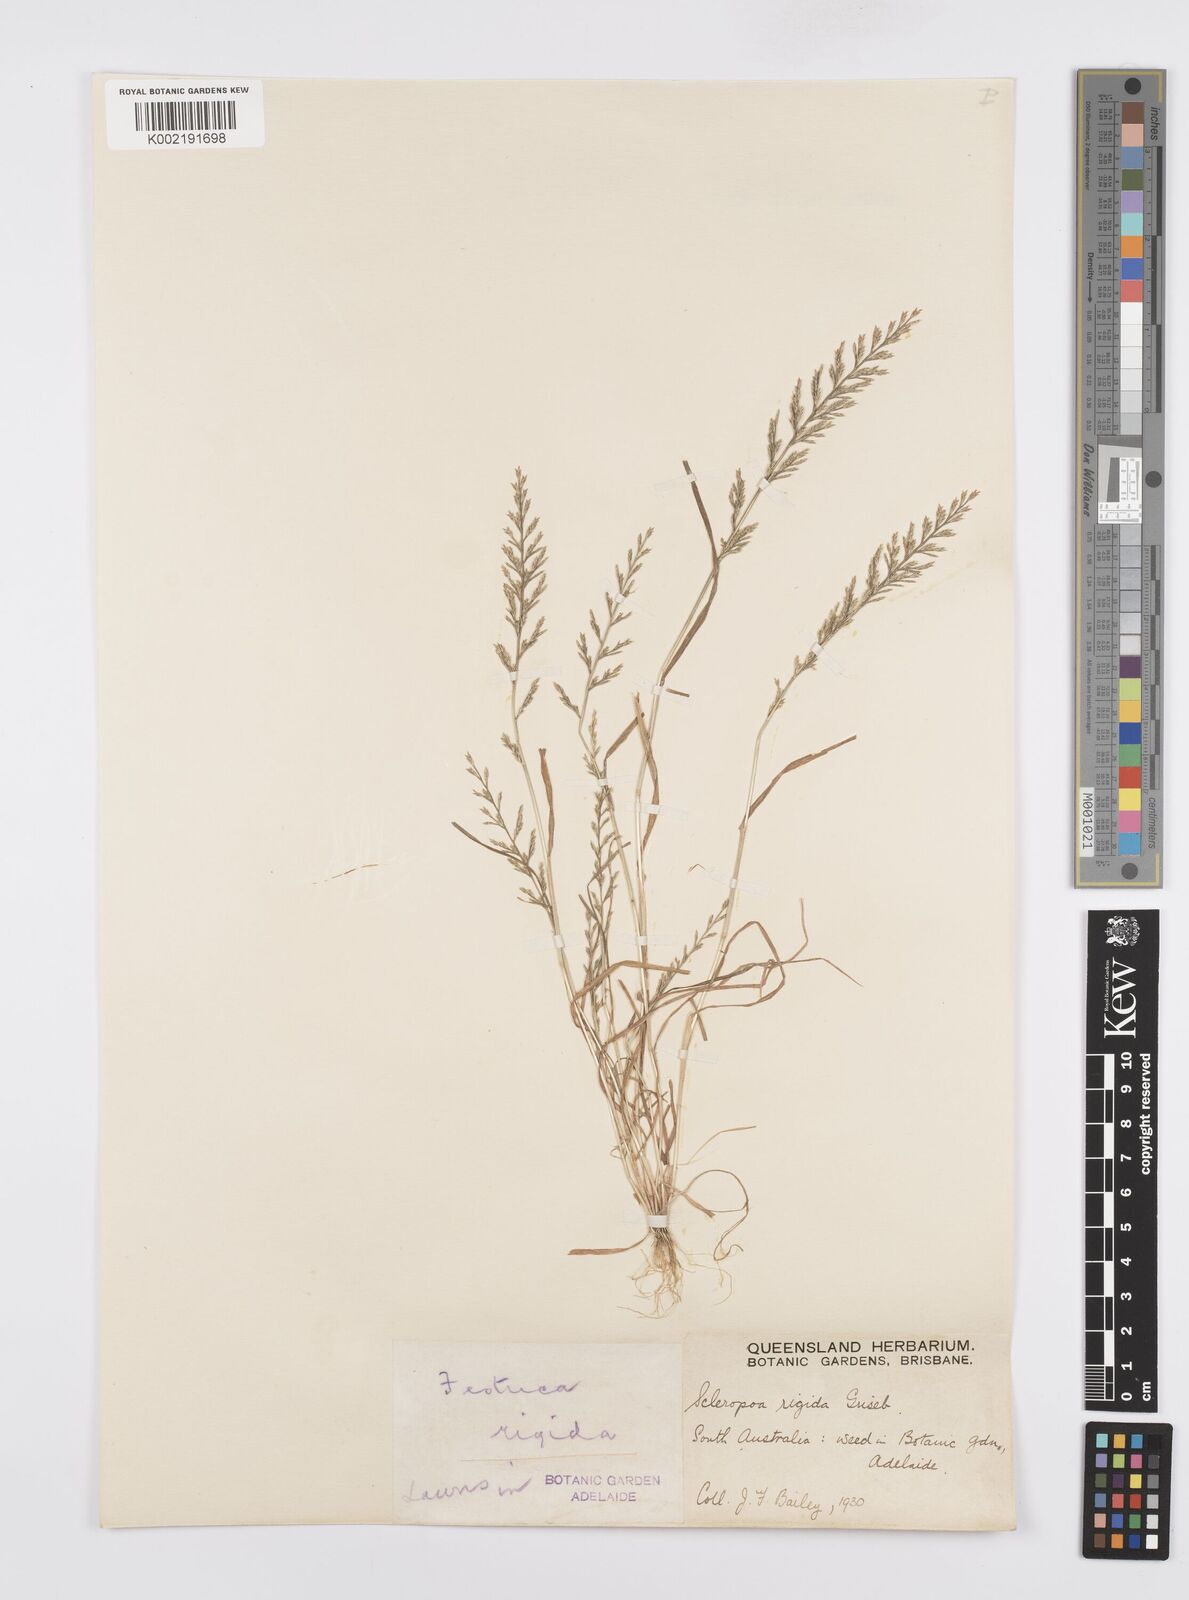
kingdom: Plantae
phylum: Tracheophyta
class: Liliopsida
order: Poales
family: Poaceae
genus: Catapodium
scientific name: Catapodium rigidum
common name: Fern-grass
